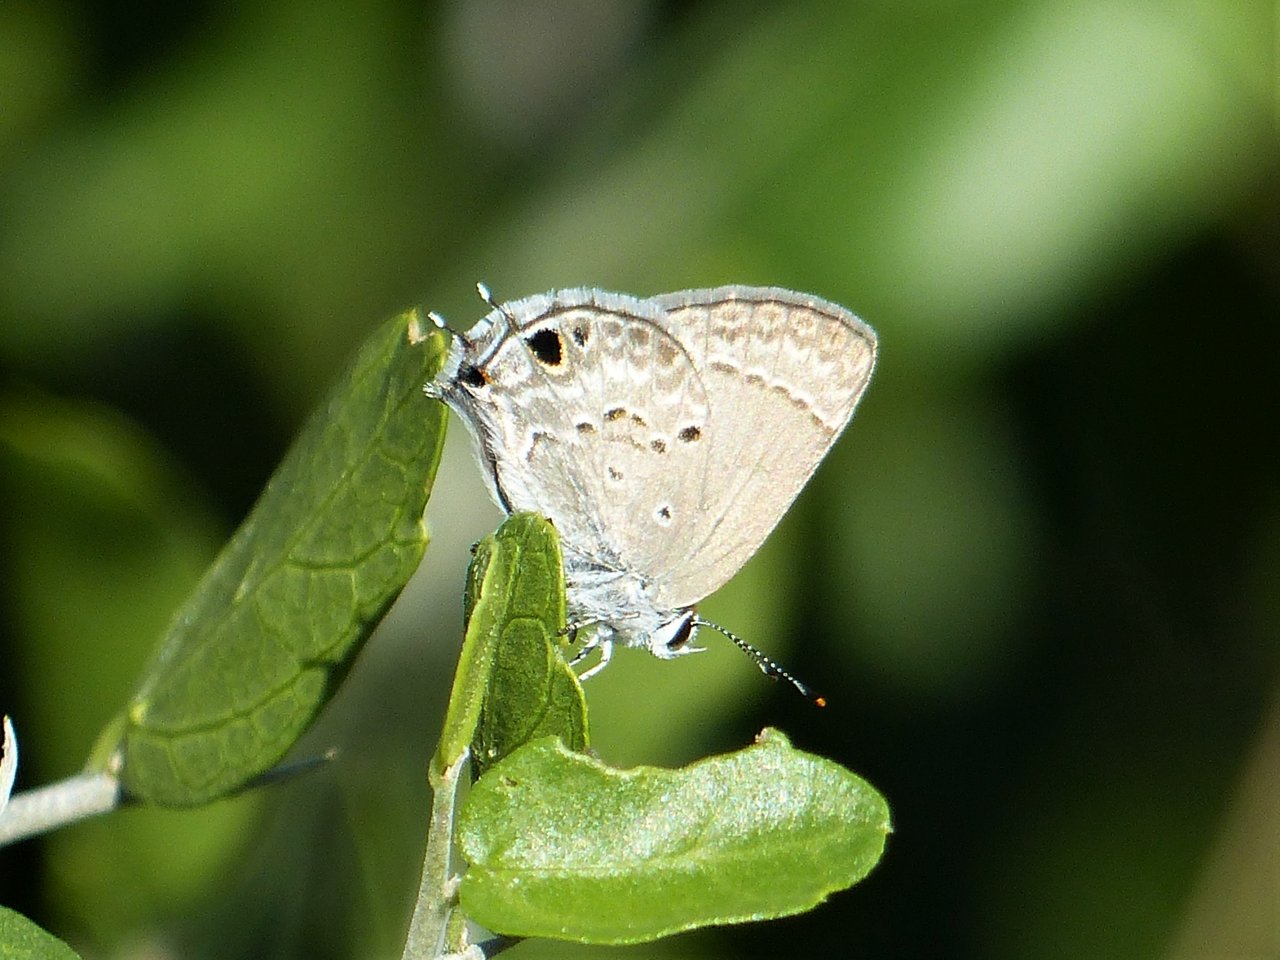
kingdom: Animalia
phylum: Arthropoda
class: Insecta
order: Lepidoptera
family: Lycaenidae
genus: Callicista
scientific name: Callicista columella
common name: Mallow Scrub-Hairstreak
